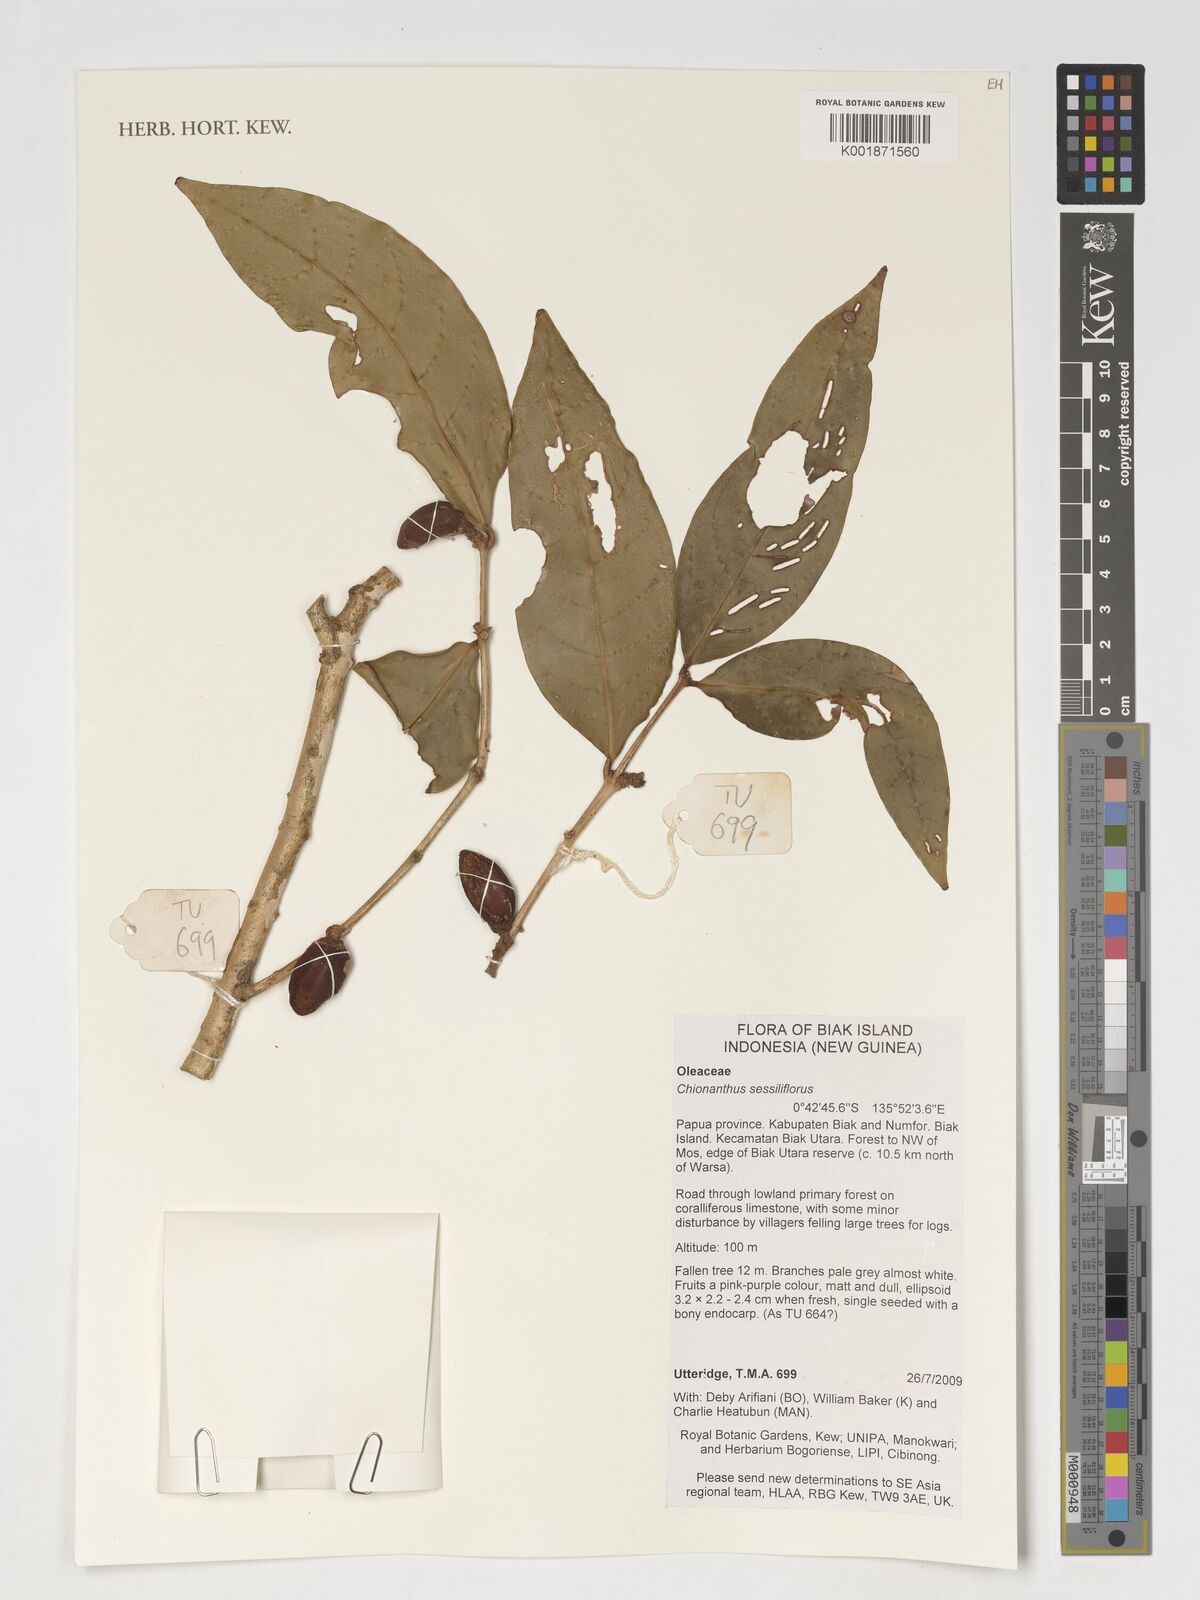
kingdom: Plantae
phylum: Tracheophyta
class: Magnoliopsida
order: Lamiales
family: Oleaceae
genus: Chionanthus
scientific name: Chionanthus sessiliflorus
